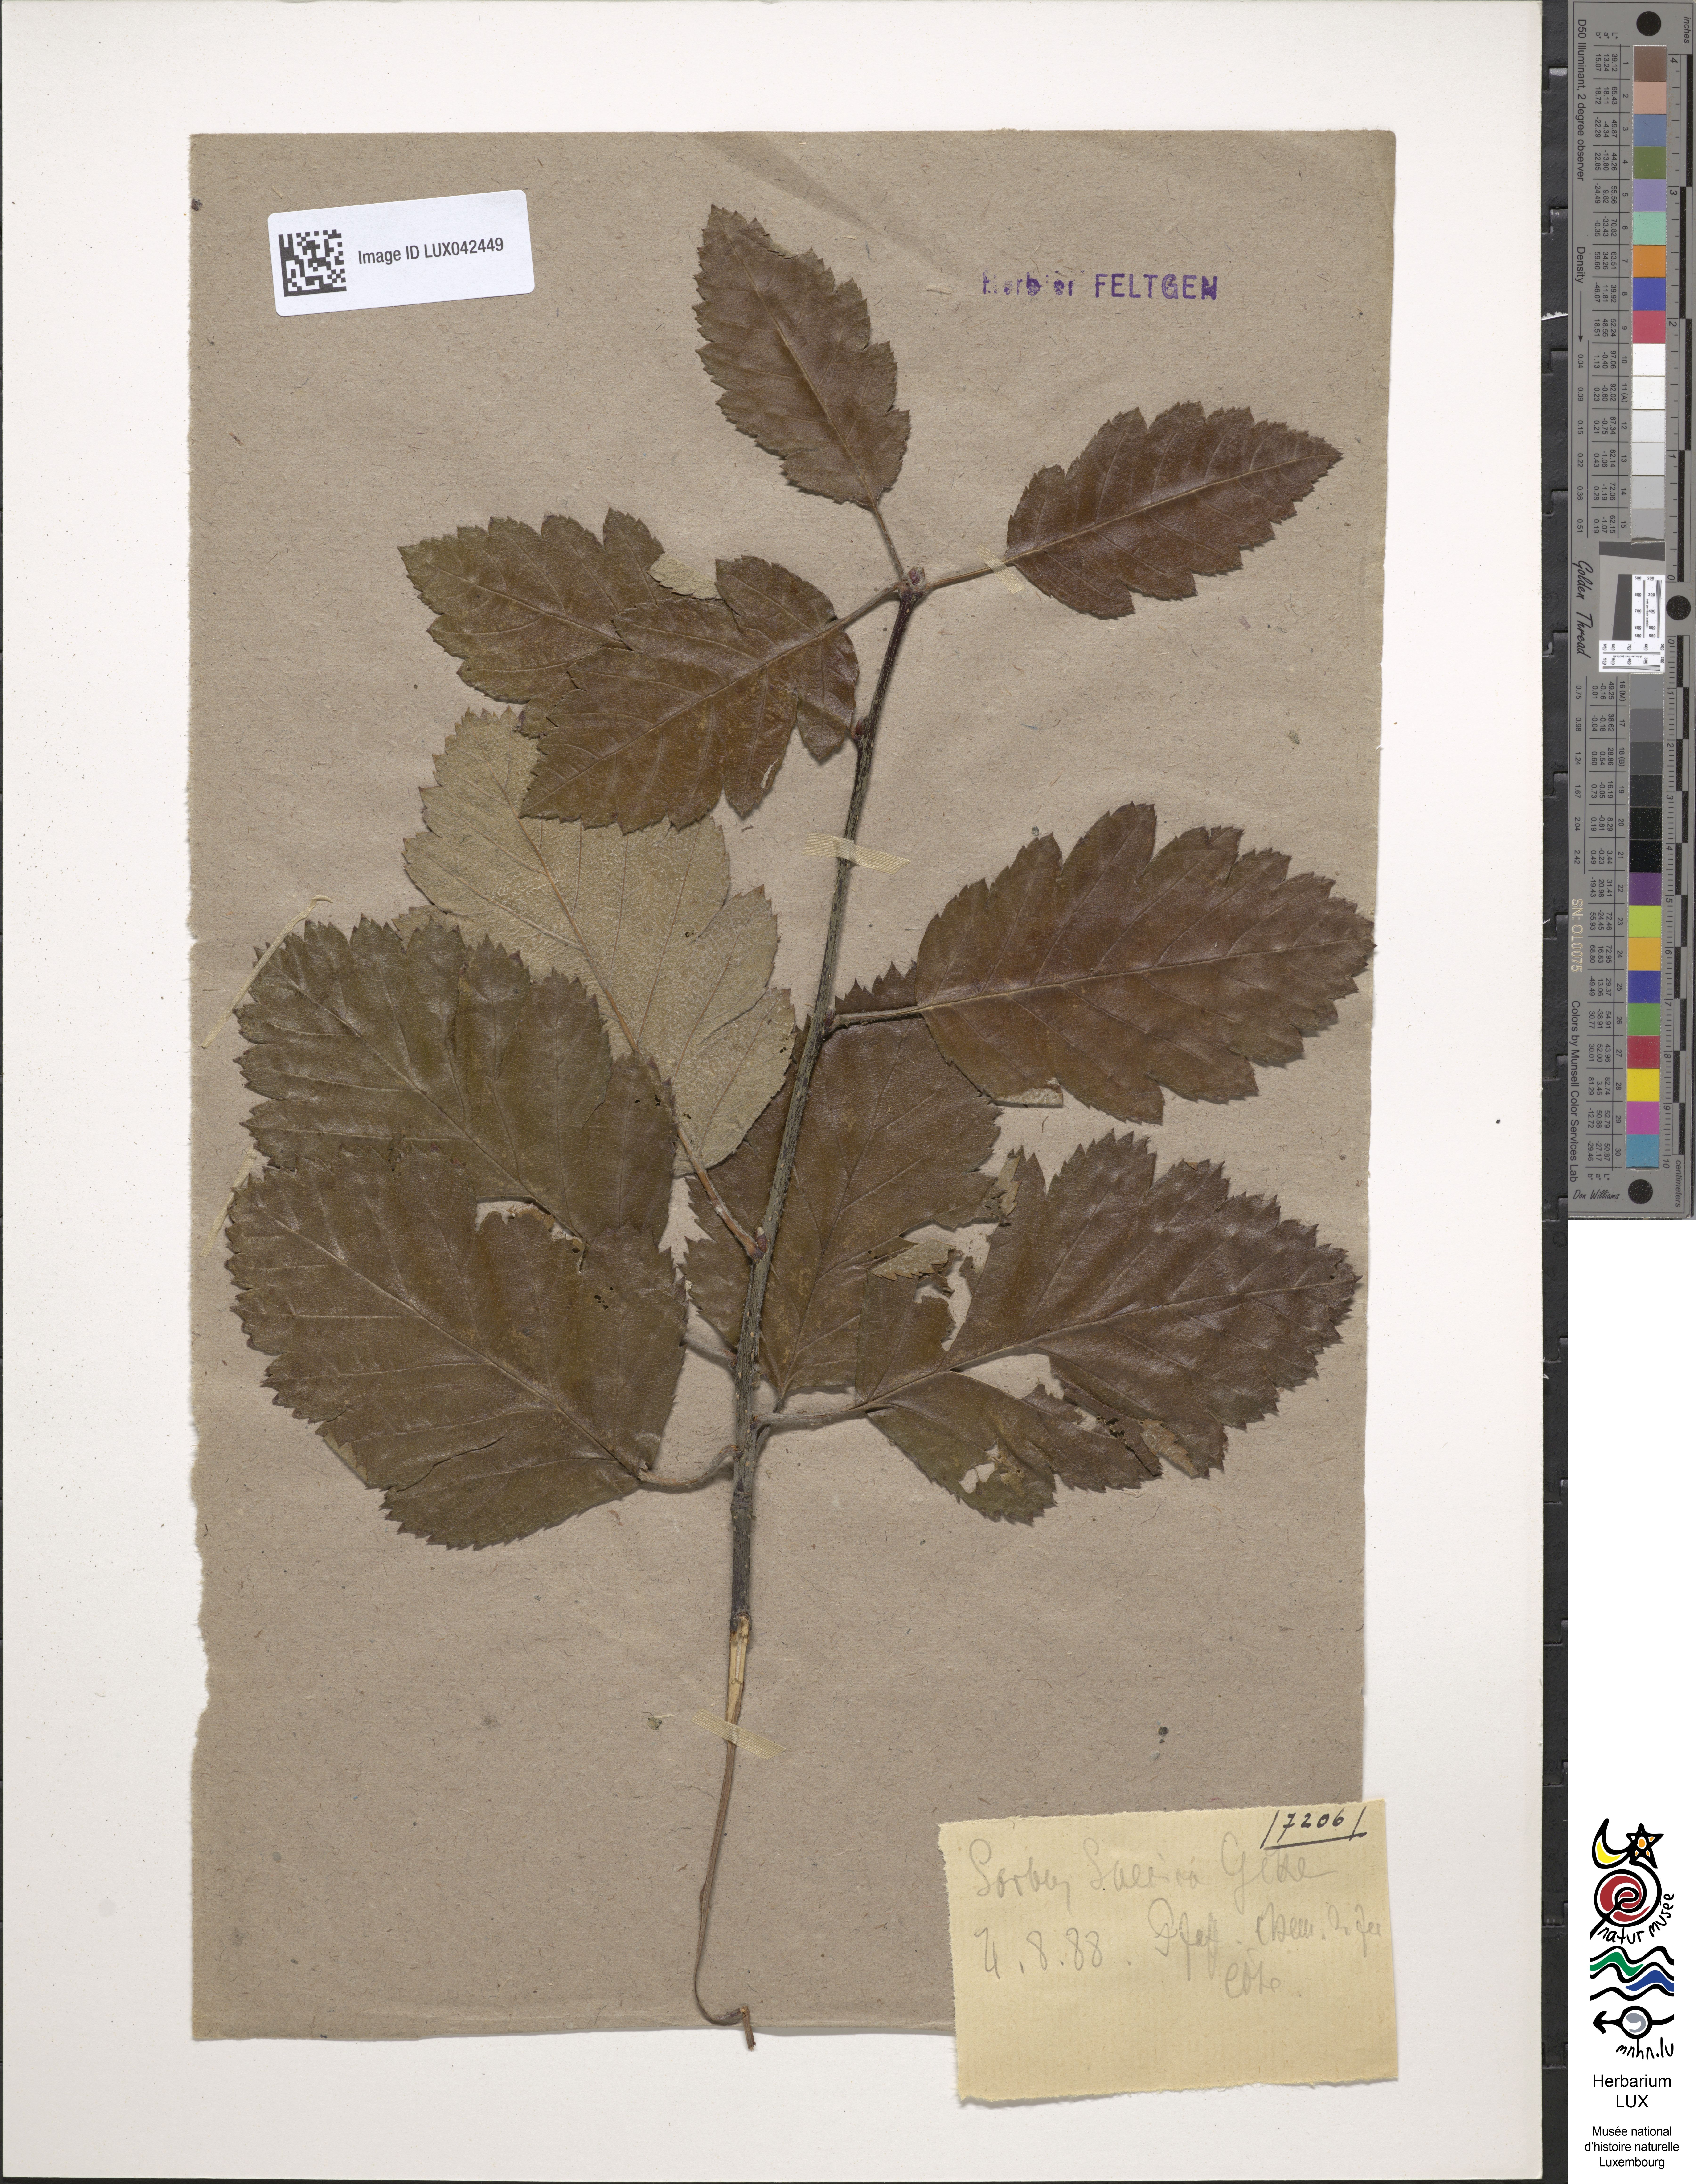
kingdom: Plantae
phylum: Tracheophyta
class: Magnoliopsida
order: Rosales
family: Rosaceae
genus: Sorbus
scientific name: Sorbus
